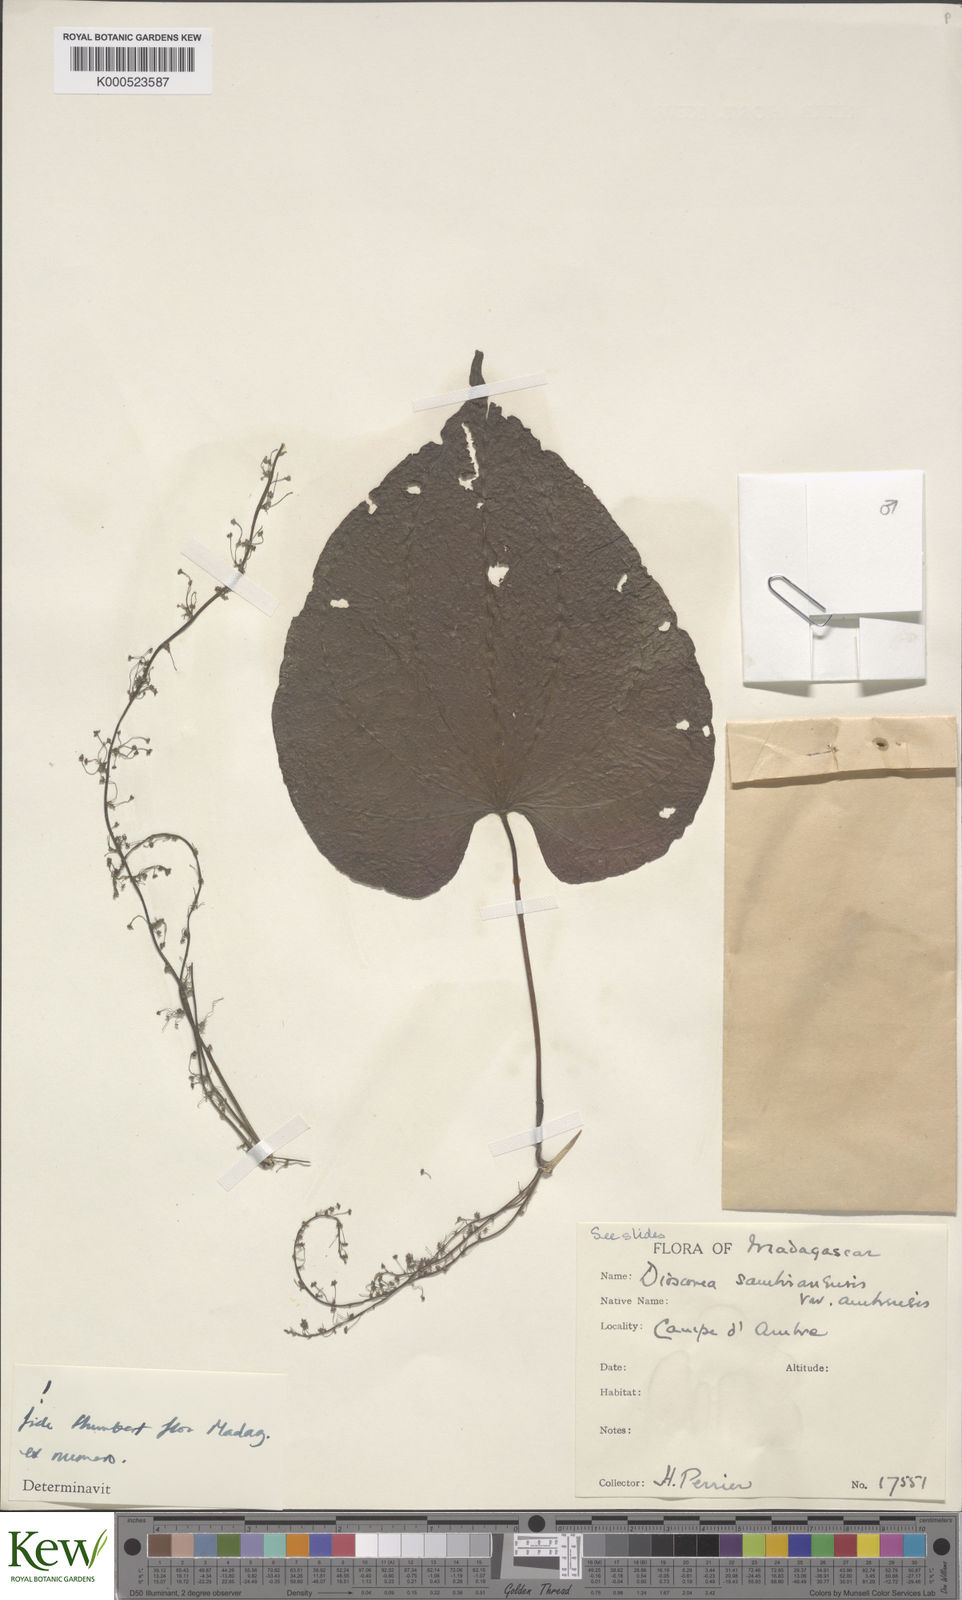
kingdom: Plantae
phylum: Tracheophyta
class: Liliopsida
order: Dioscoreales
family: Dioscoreaceae
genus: Dioscorea
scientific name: Dioscorea sambiranensis
